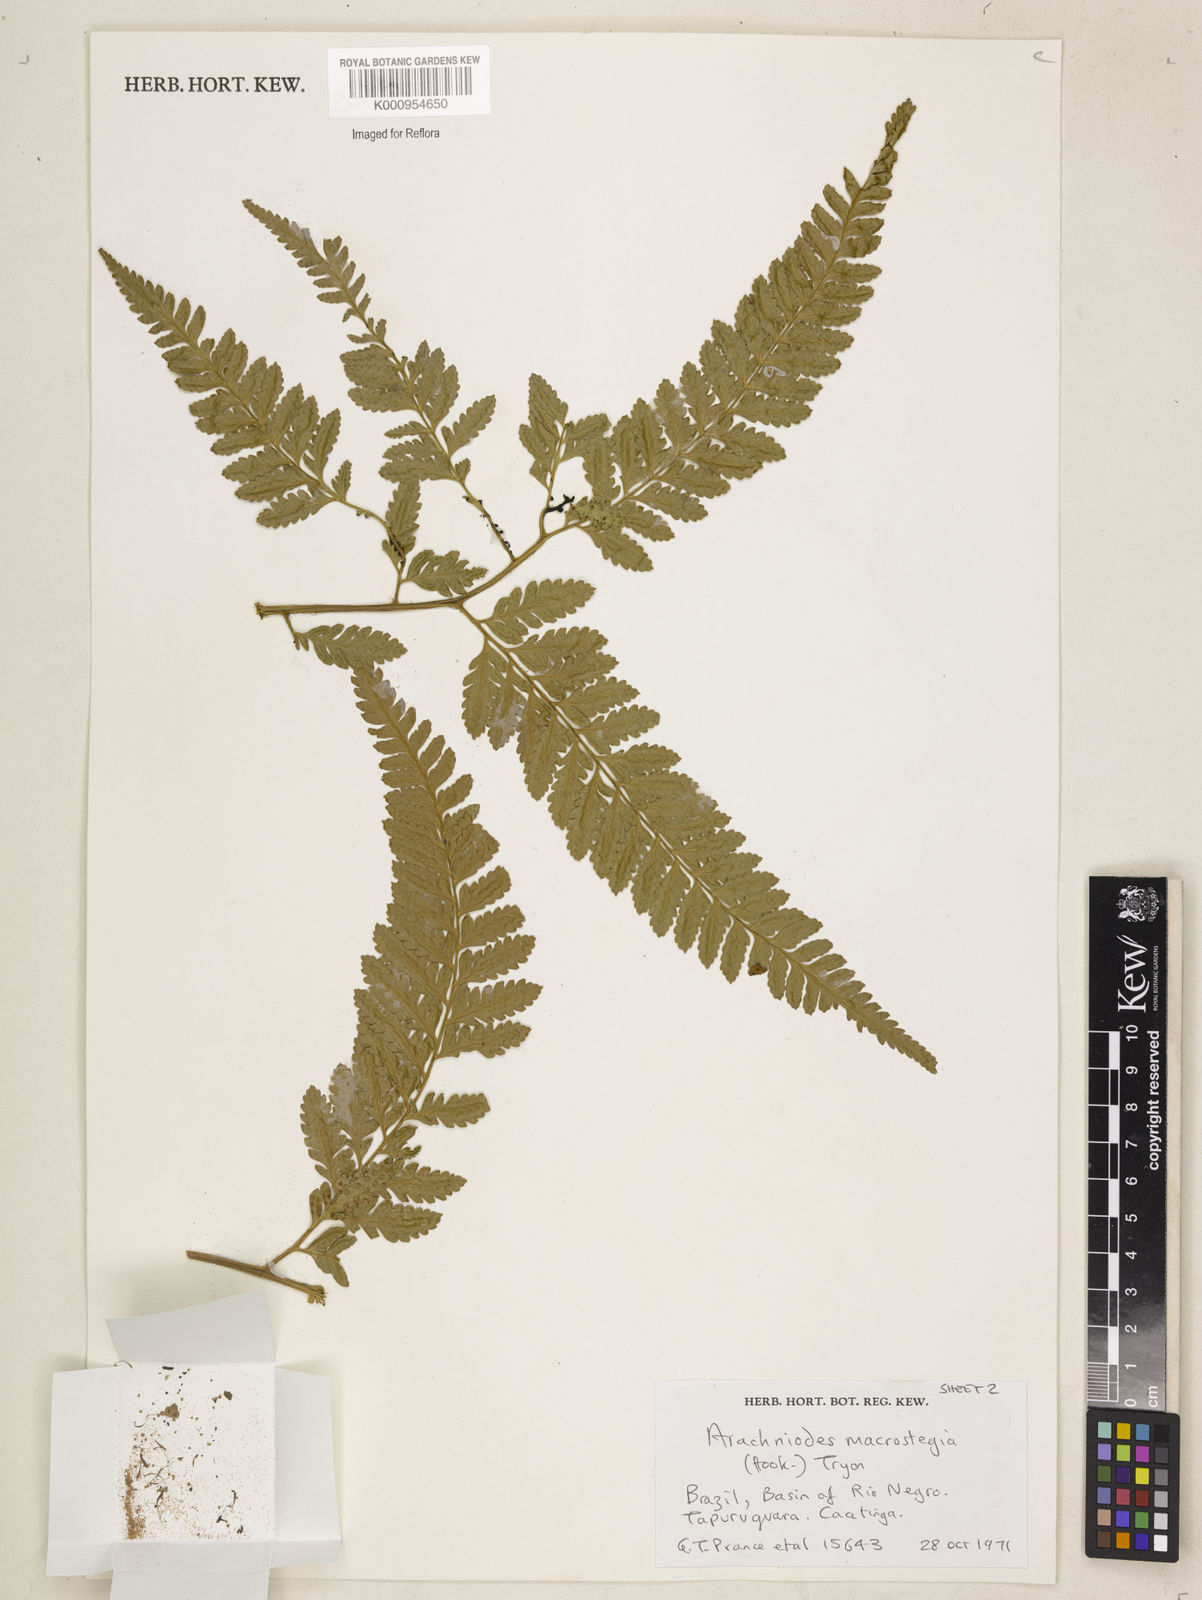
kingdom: Plantae
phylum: Tracheophyta
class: Polypodiopsida
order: Polypodiales
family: Dryopteridaceae
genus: Olfersia
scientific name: Olfersia macrostegia
